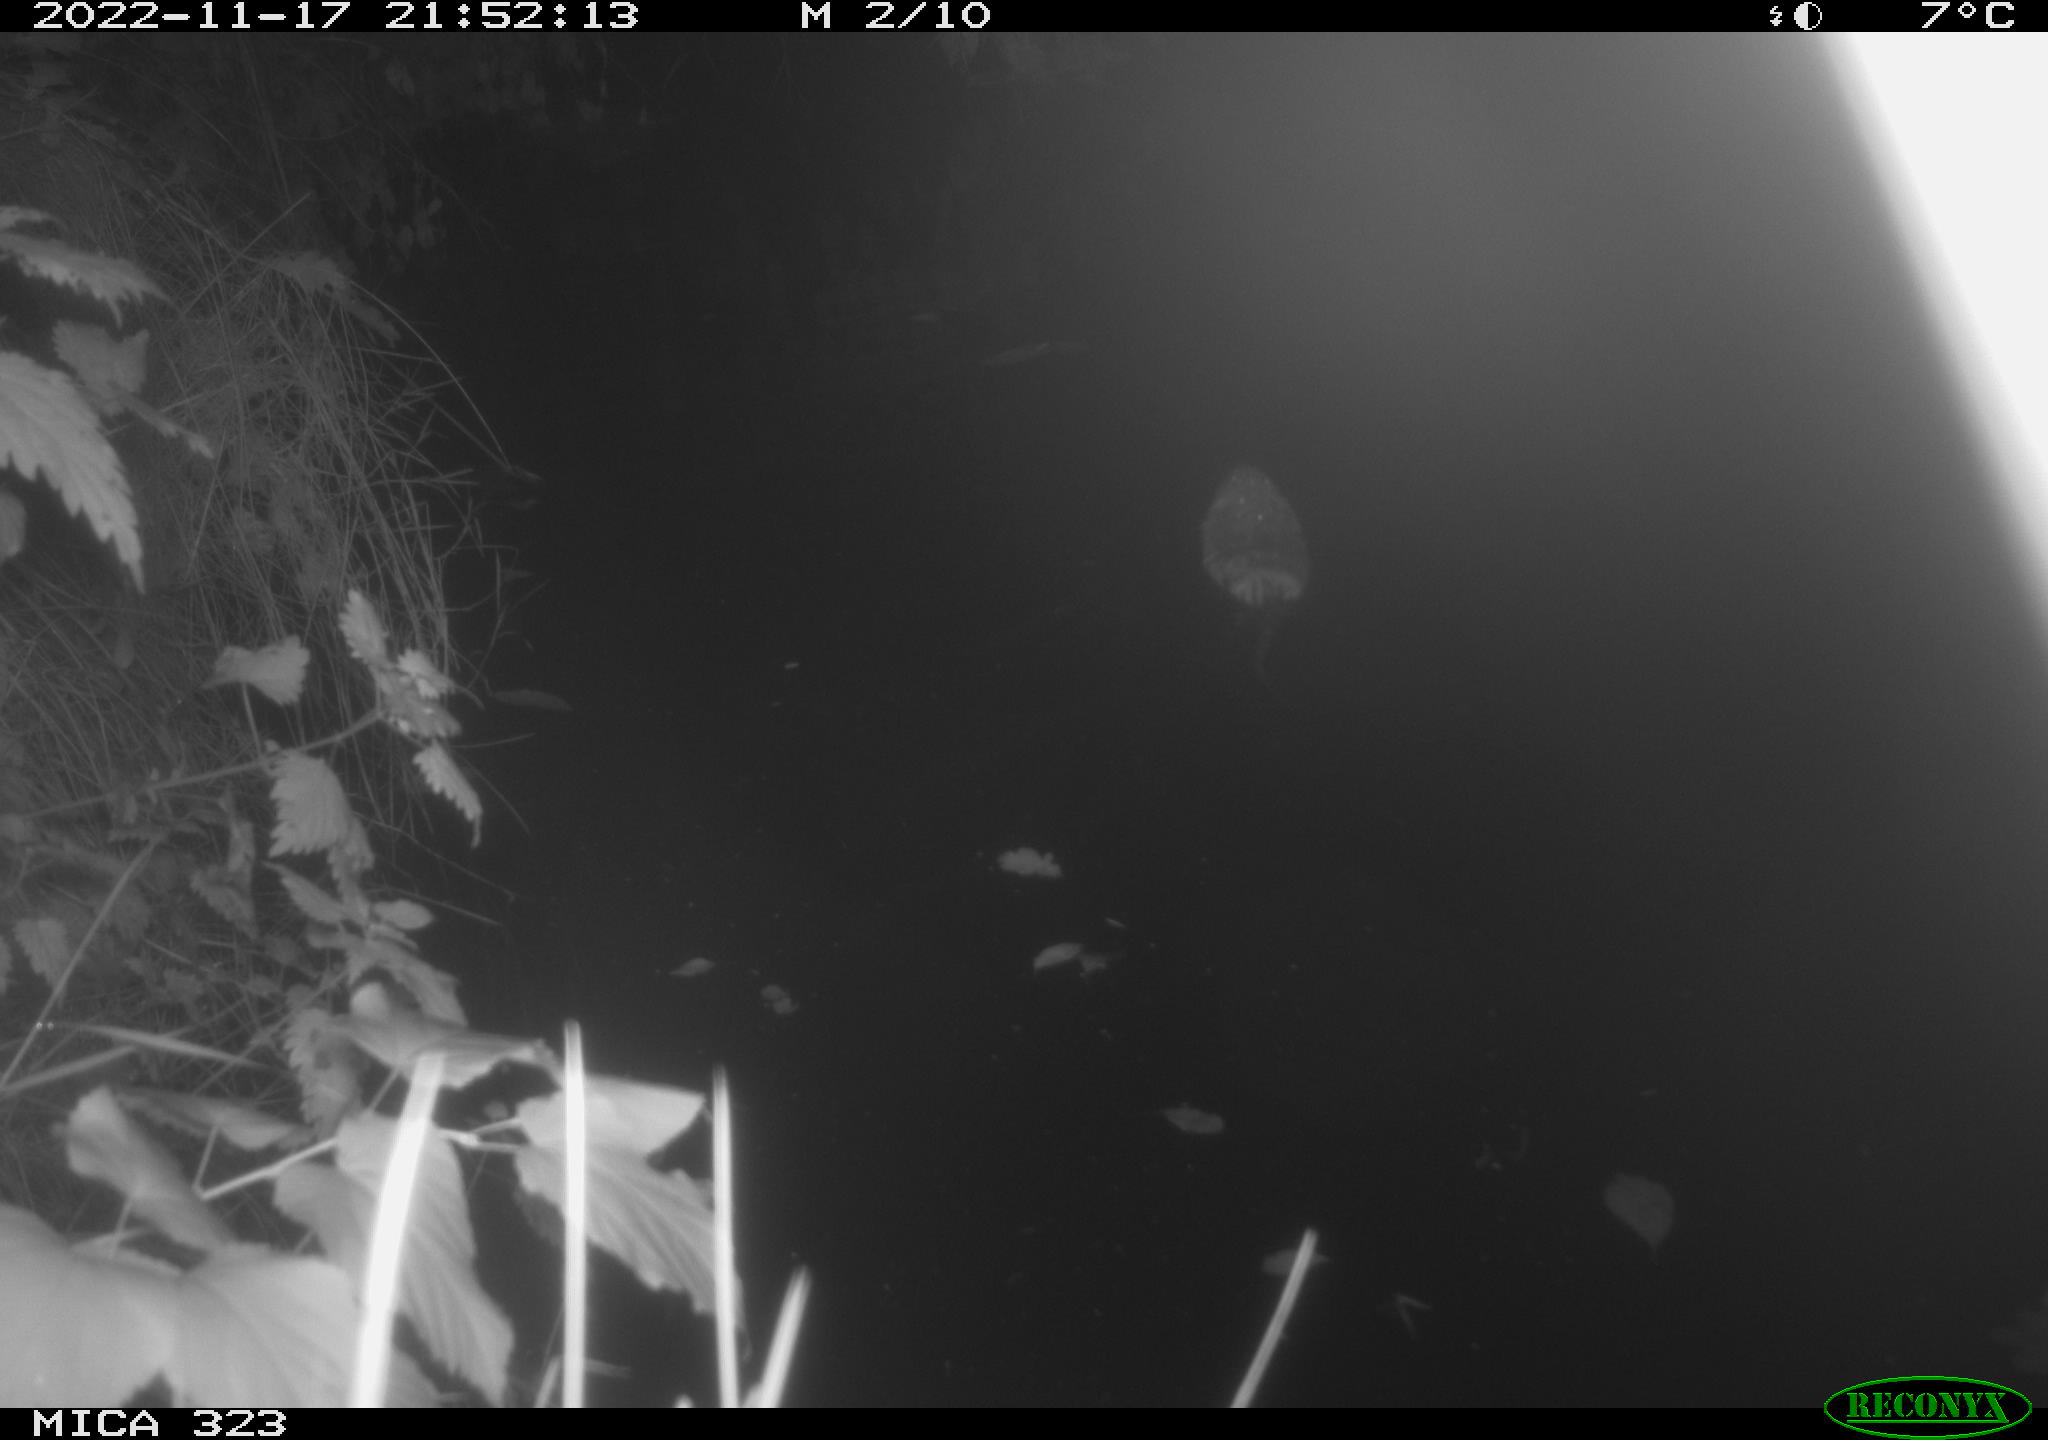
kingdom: Animalia
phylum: Chordata
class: Mammalia
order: Rodentia
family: Cricetidae
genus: Ondatra
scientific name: Ondatra zibethicus
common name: Muskrat
